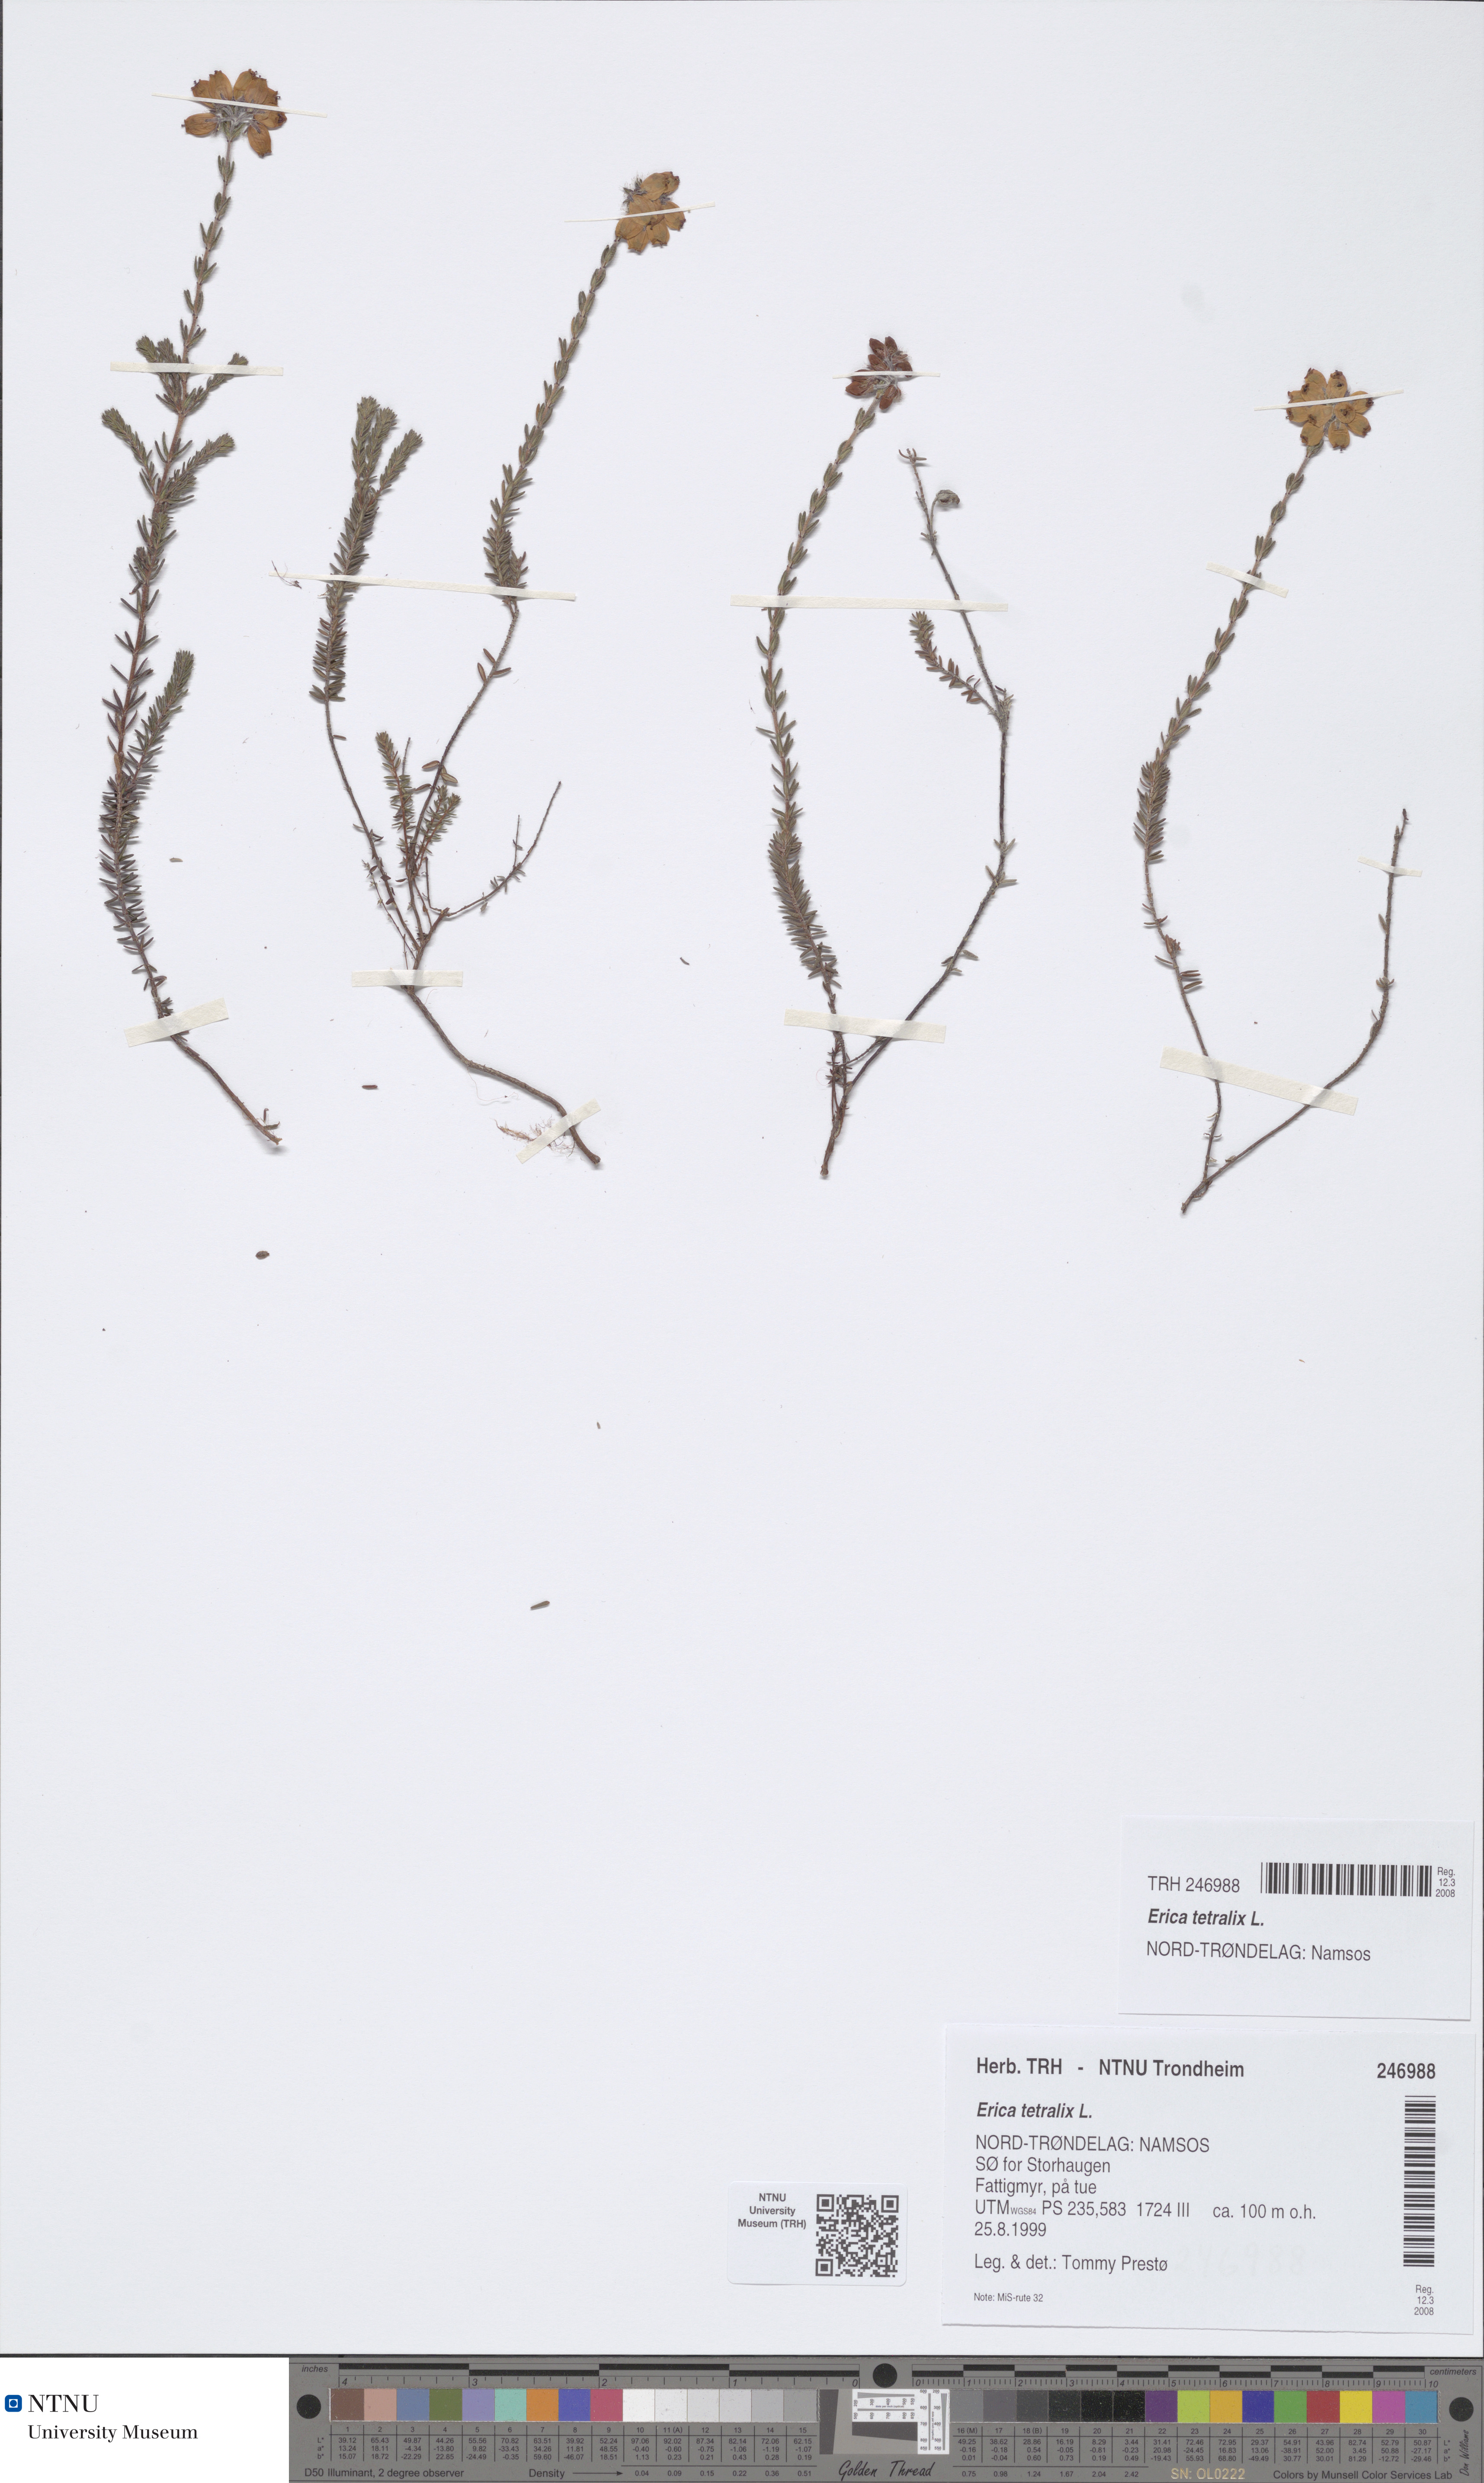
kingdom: Plantae
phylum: Tracheophyta
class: Magnoliopsida
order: Ericales
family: Ericaceae
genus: Erica
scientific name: Erica tetralix
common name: Cross-leaved heath
